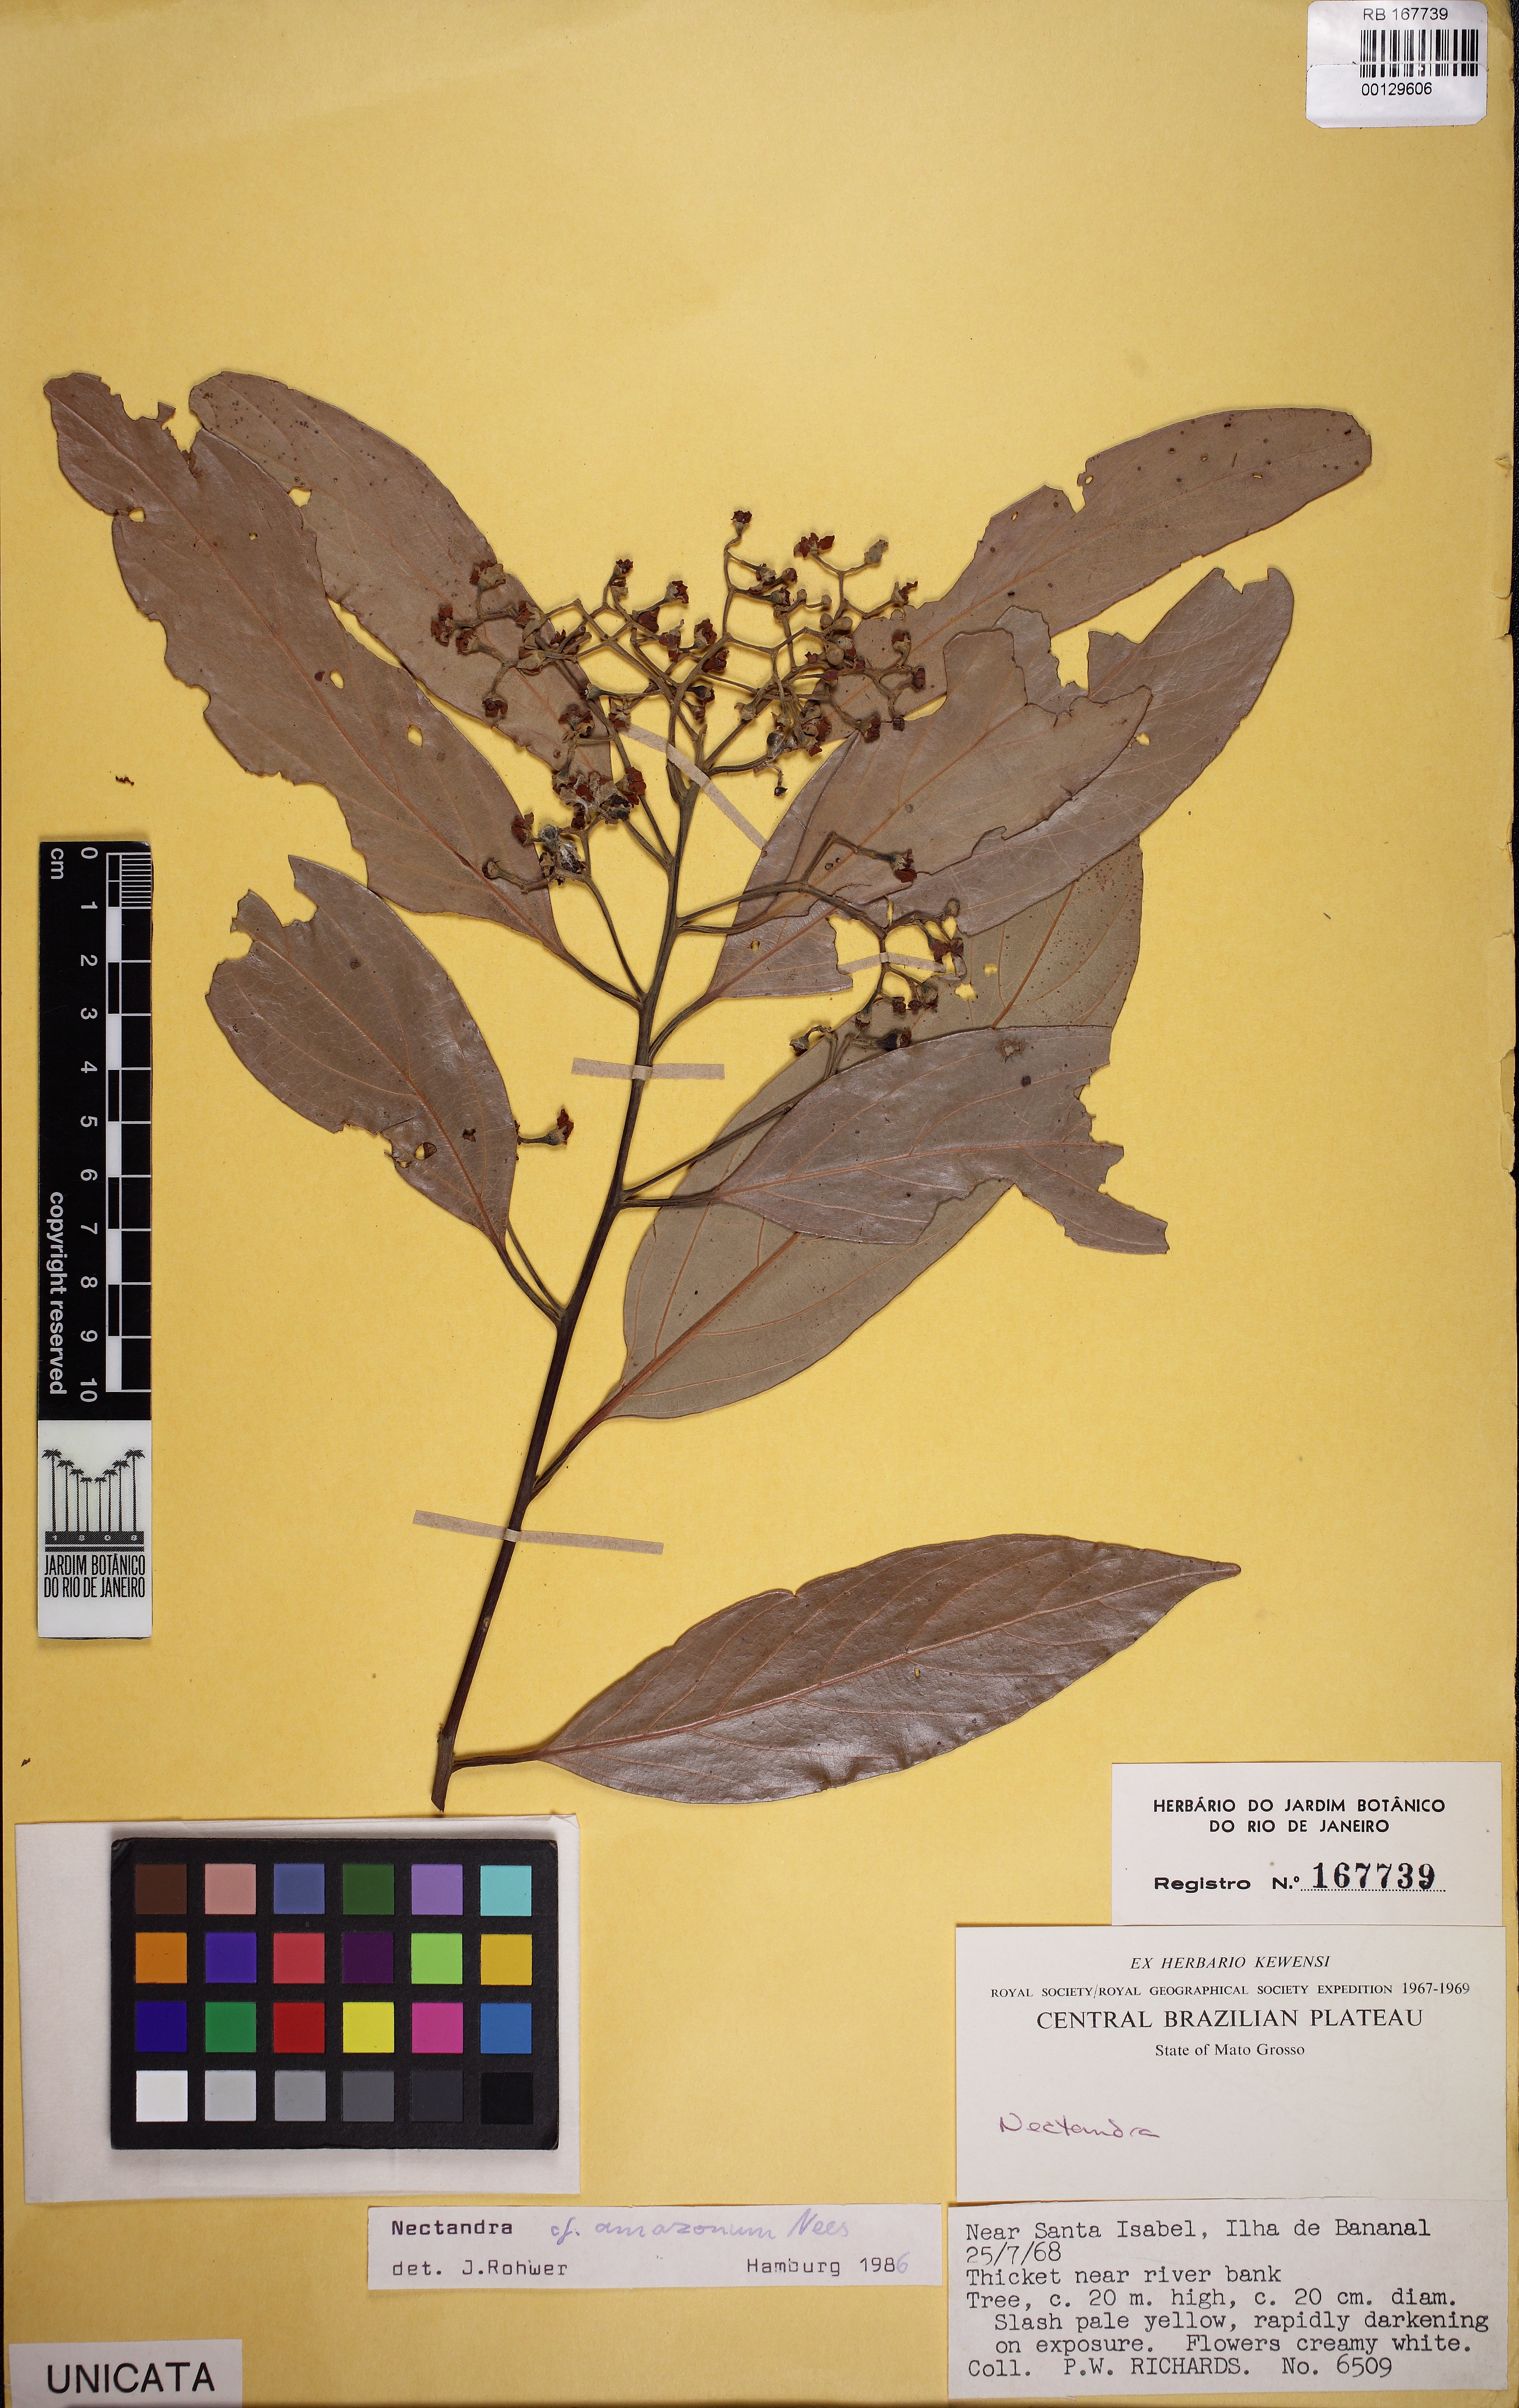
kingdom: Plantae
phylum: Tracheophyta
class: Magnoliopsida
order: Laurales
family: Lauraceae
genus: Nectandra
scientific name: Nectandra amazonum
